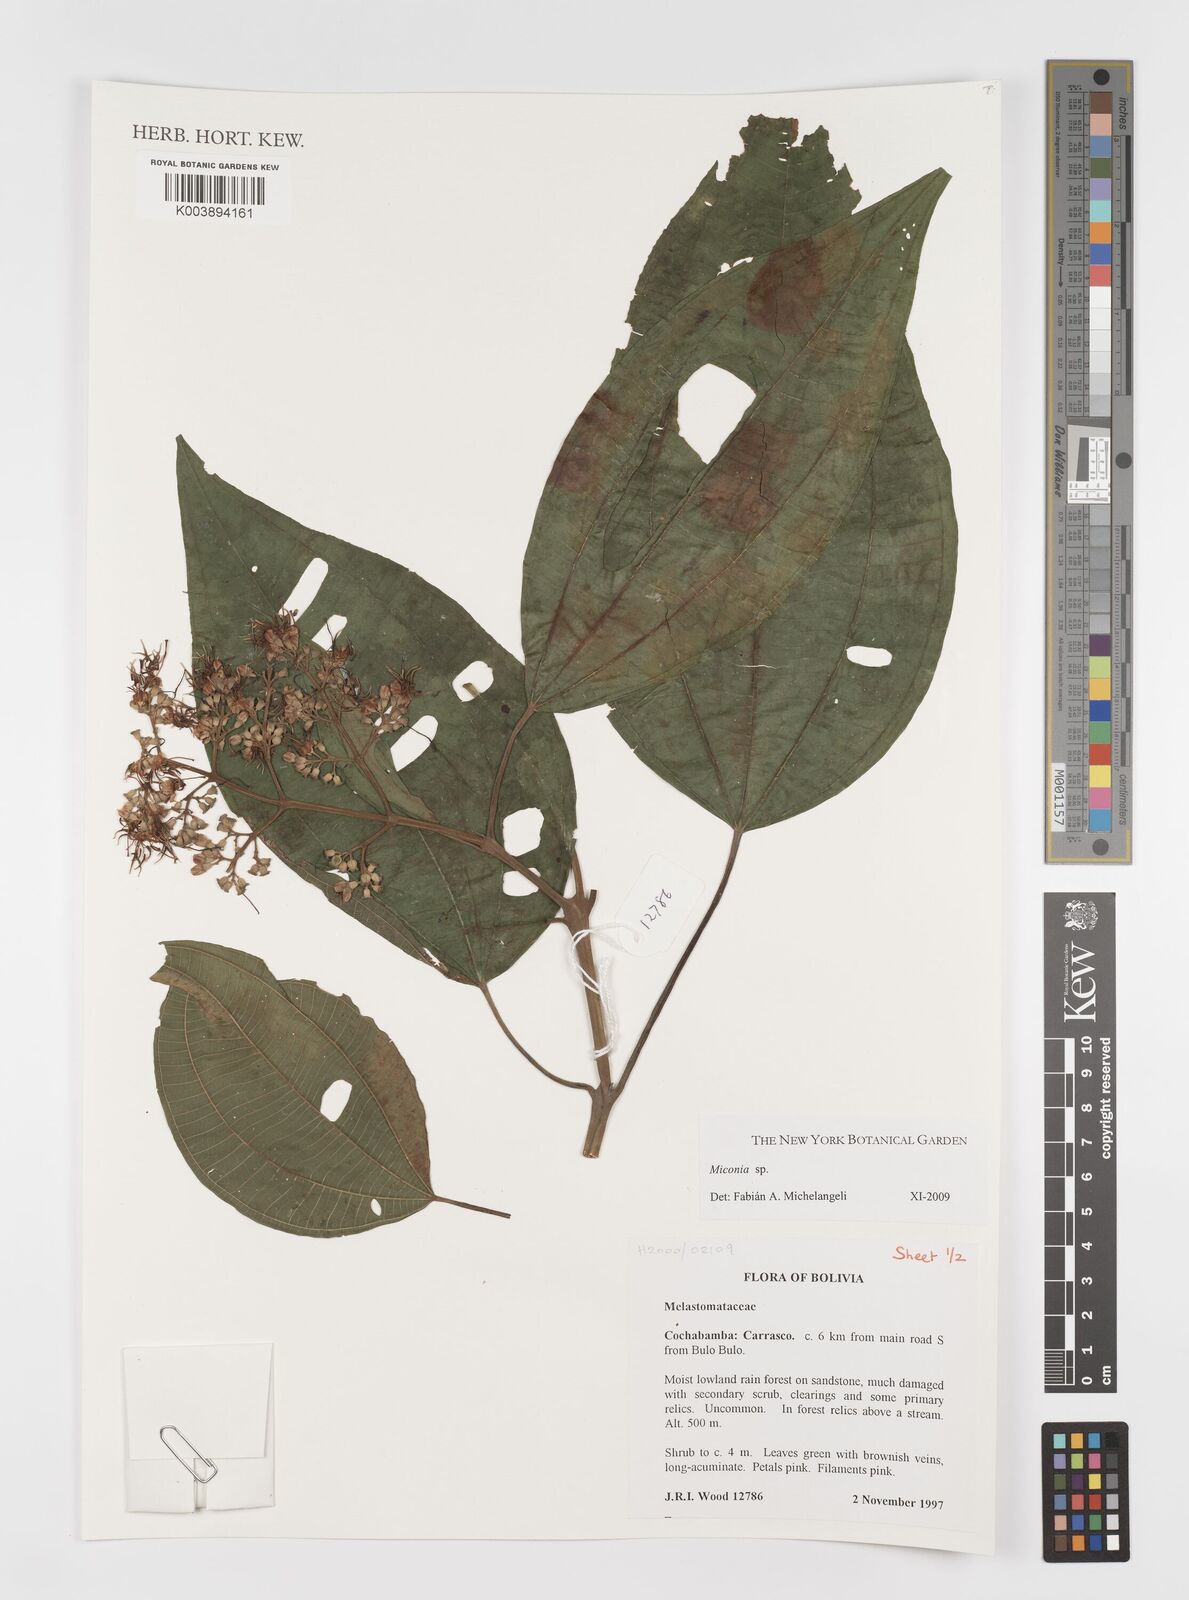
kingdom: Plantae
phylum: Tracheophyta
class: Magnoliopsida
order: Myrtales
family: Melastomataceae
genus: Miconia
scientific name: Miconia
